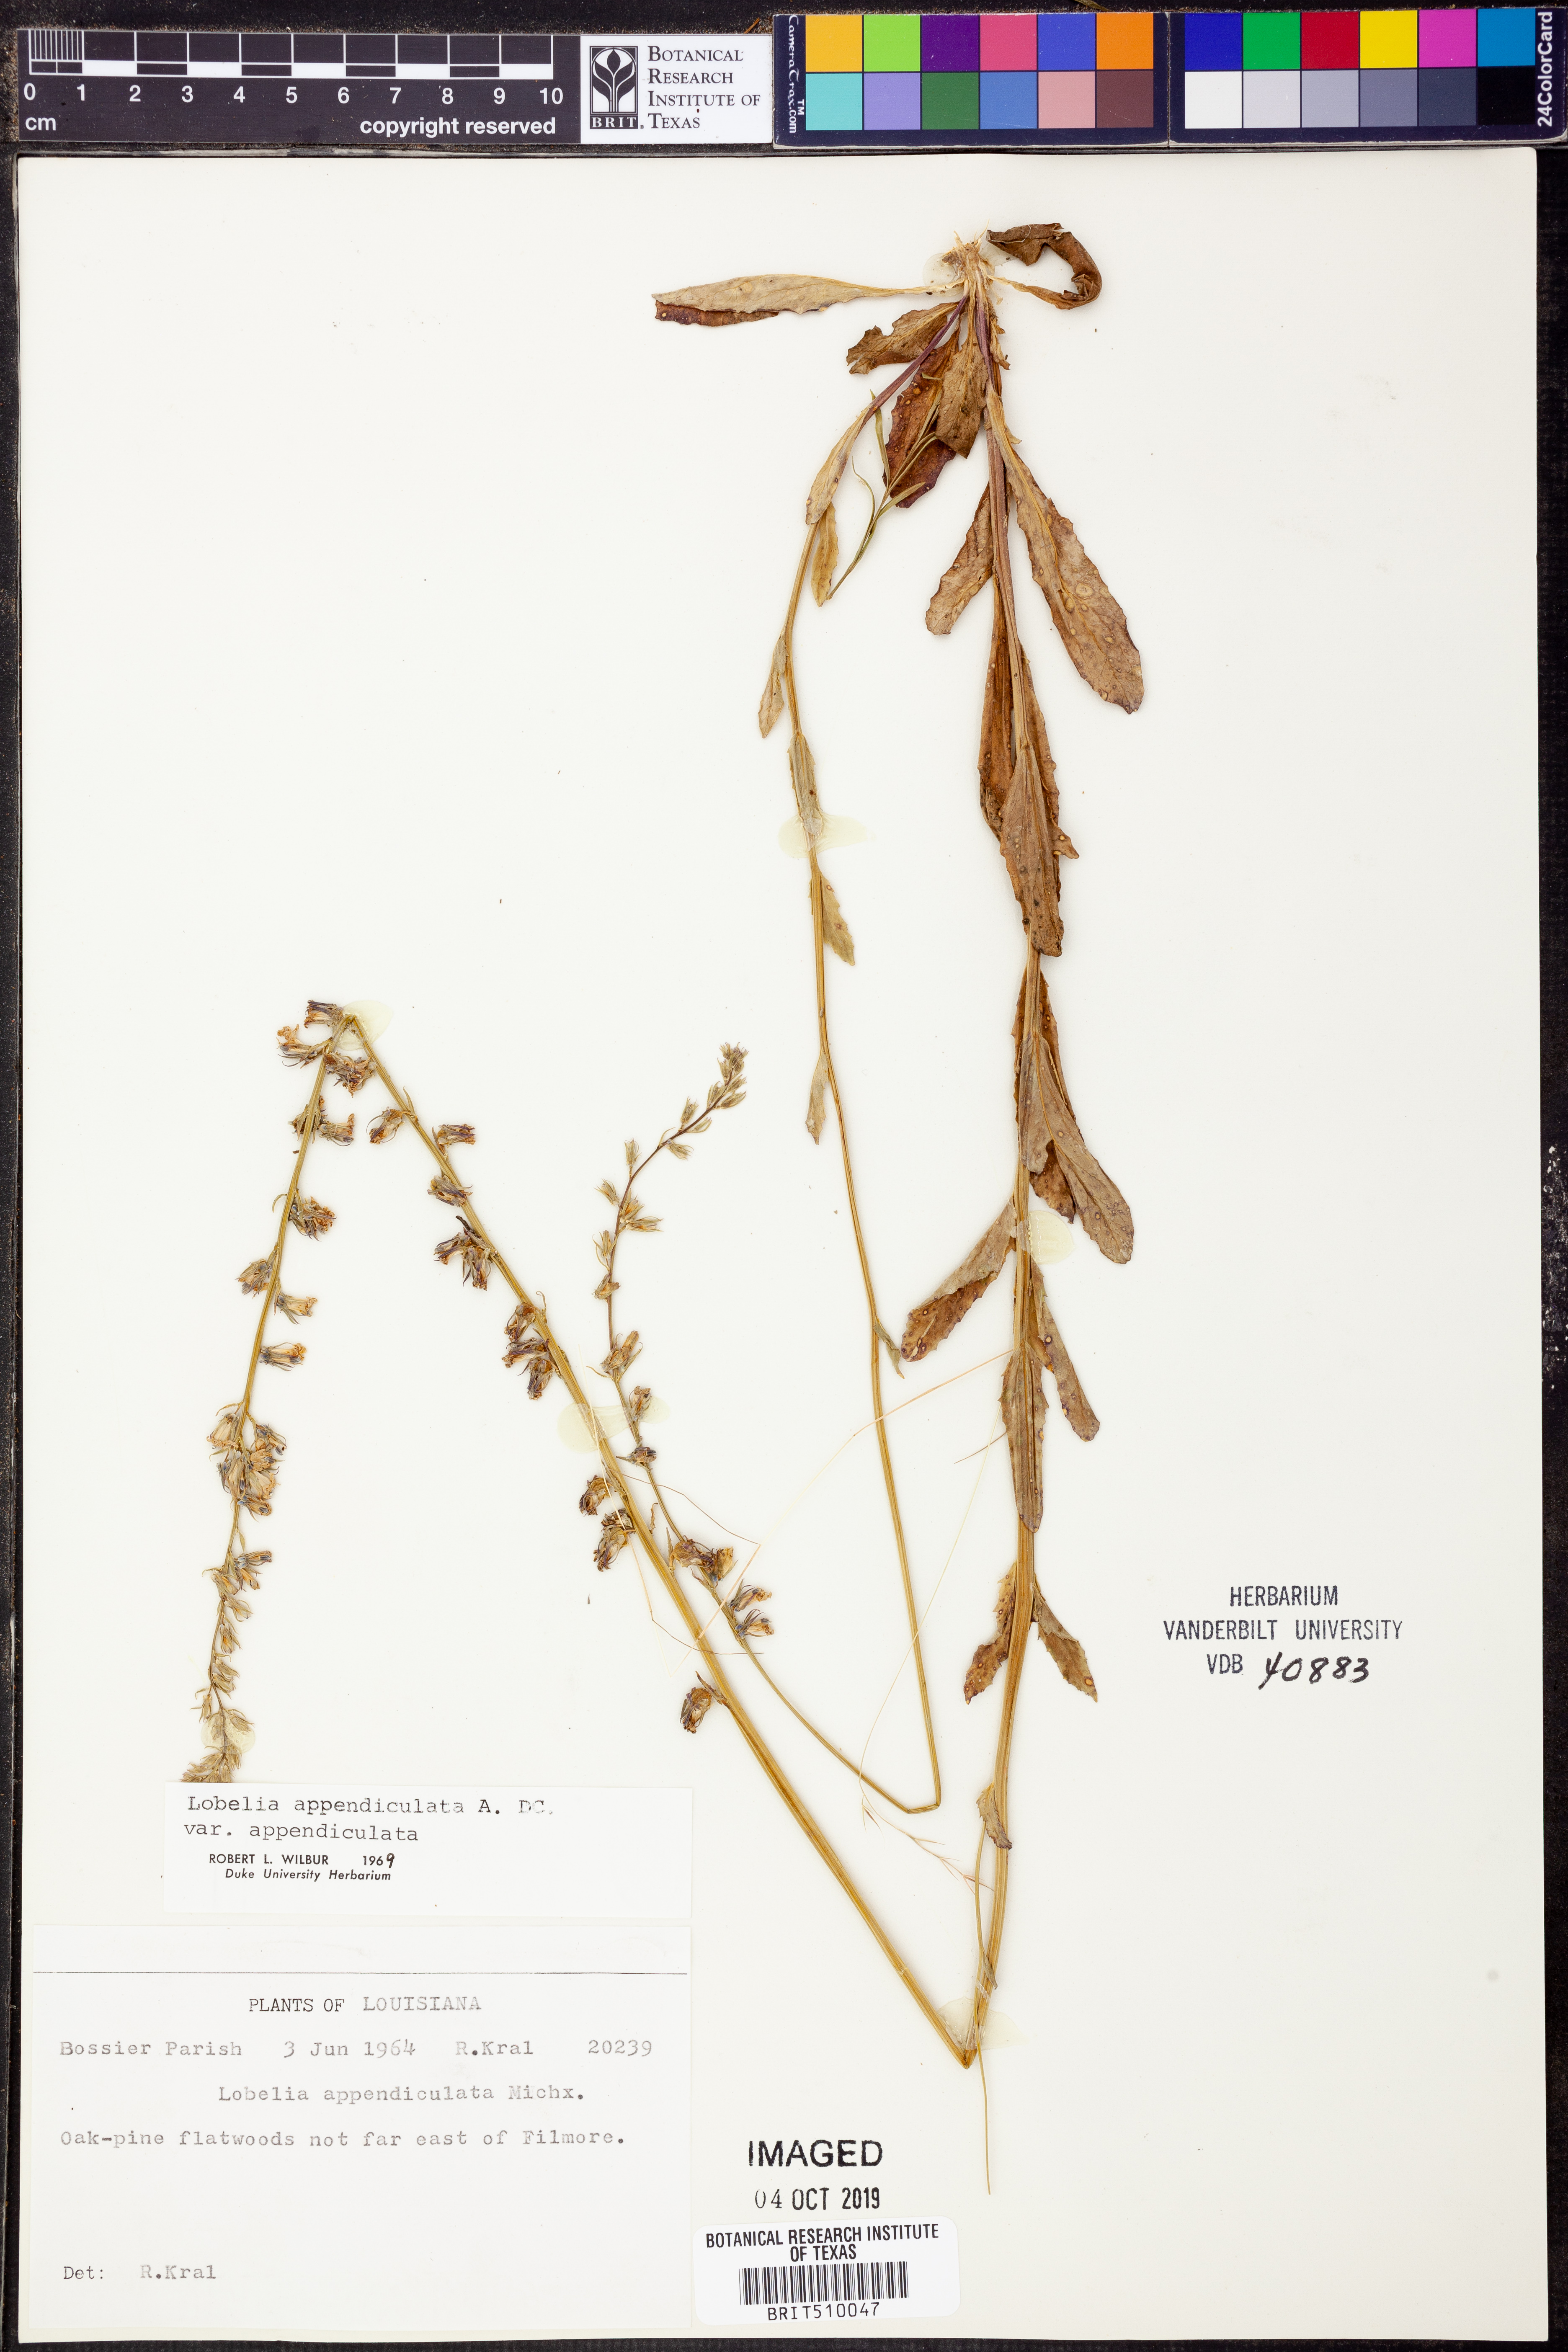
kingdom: Plantae
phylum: Tracheophyta
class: Magnoliopsida
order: Asterales
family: Campanulaceae
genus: Lobelia
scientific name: Lobelia appendiculata
